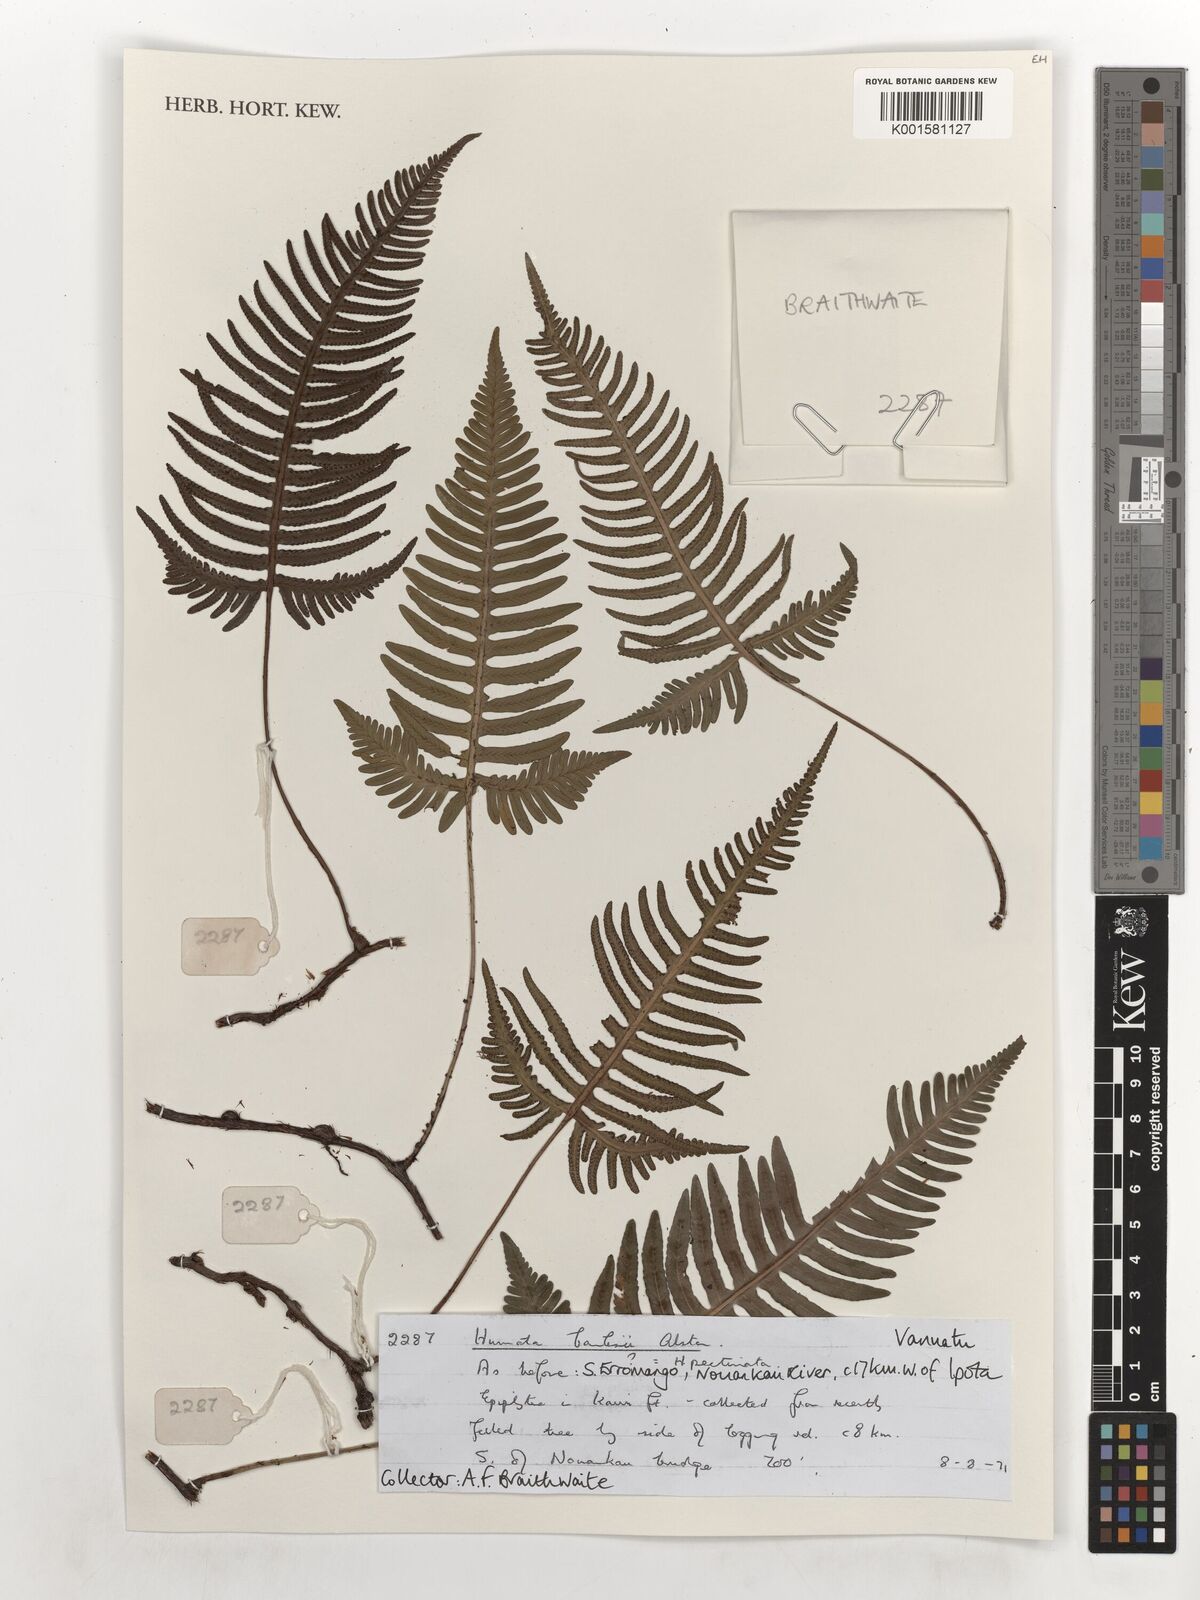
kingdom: Plantae
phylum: Tracheophyta
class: Polypodiopsida
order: Polypodiales
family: Davalliaceae
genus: Davallia
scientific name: Davallia pectinata
